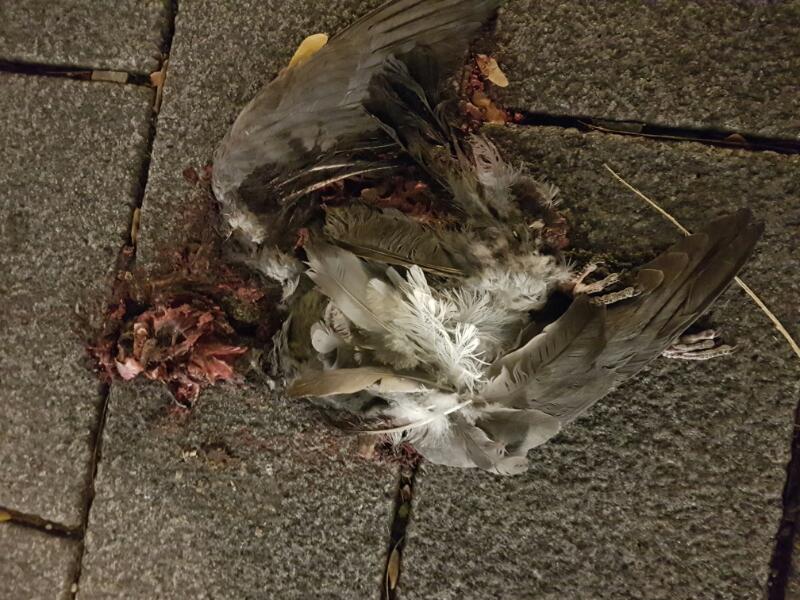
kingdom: Animalia
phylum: Chordata
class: Aves
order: Columbiformes
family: Columbidae
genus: Columba
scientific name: Columba livia
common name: Rock pigeon
